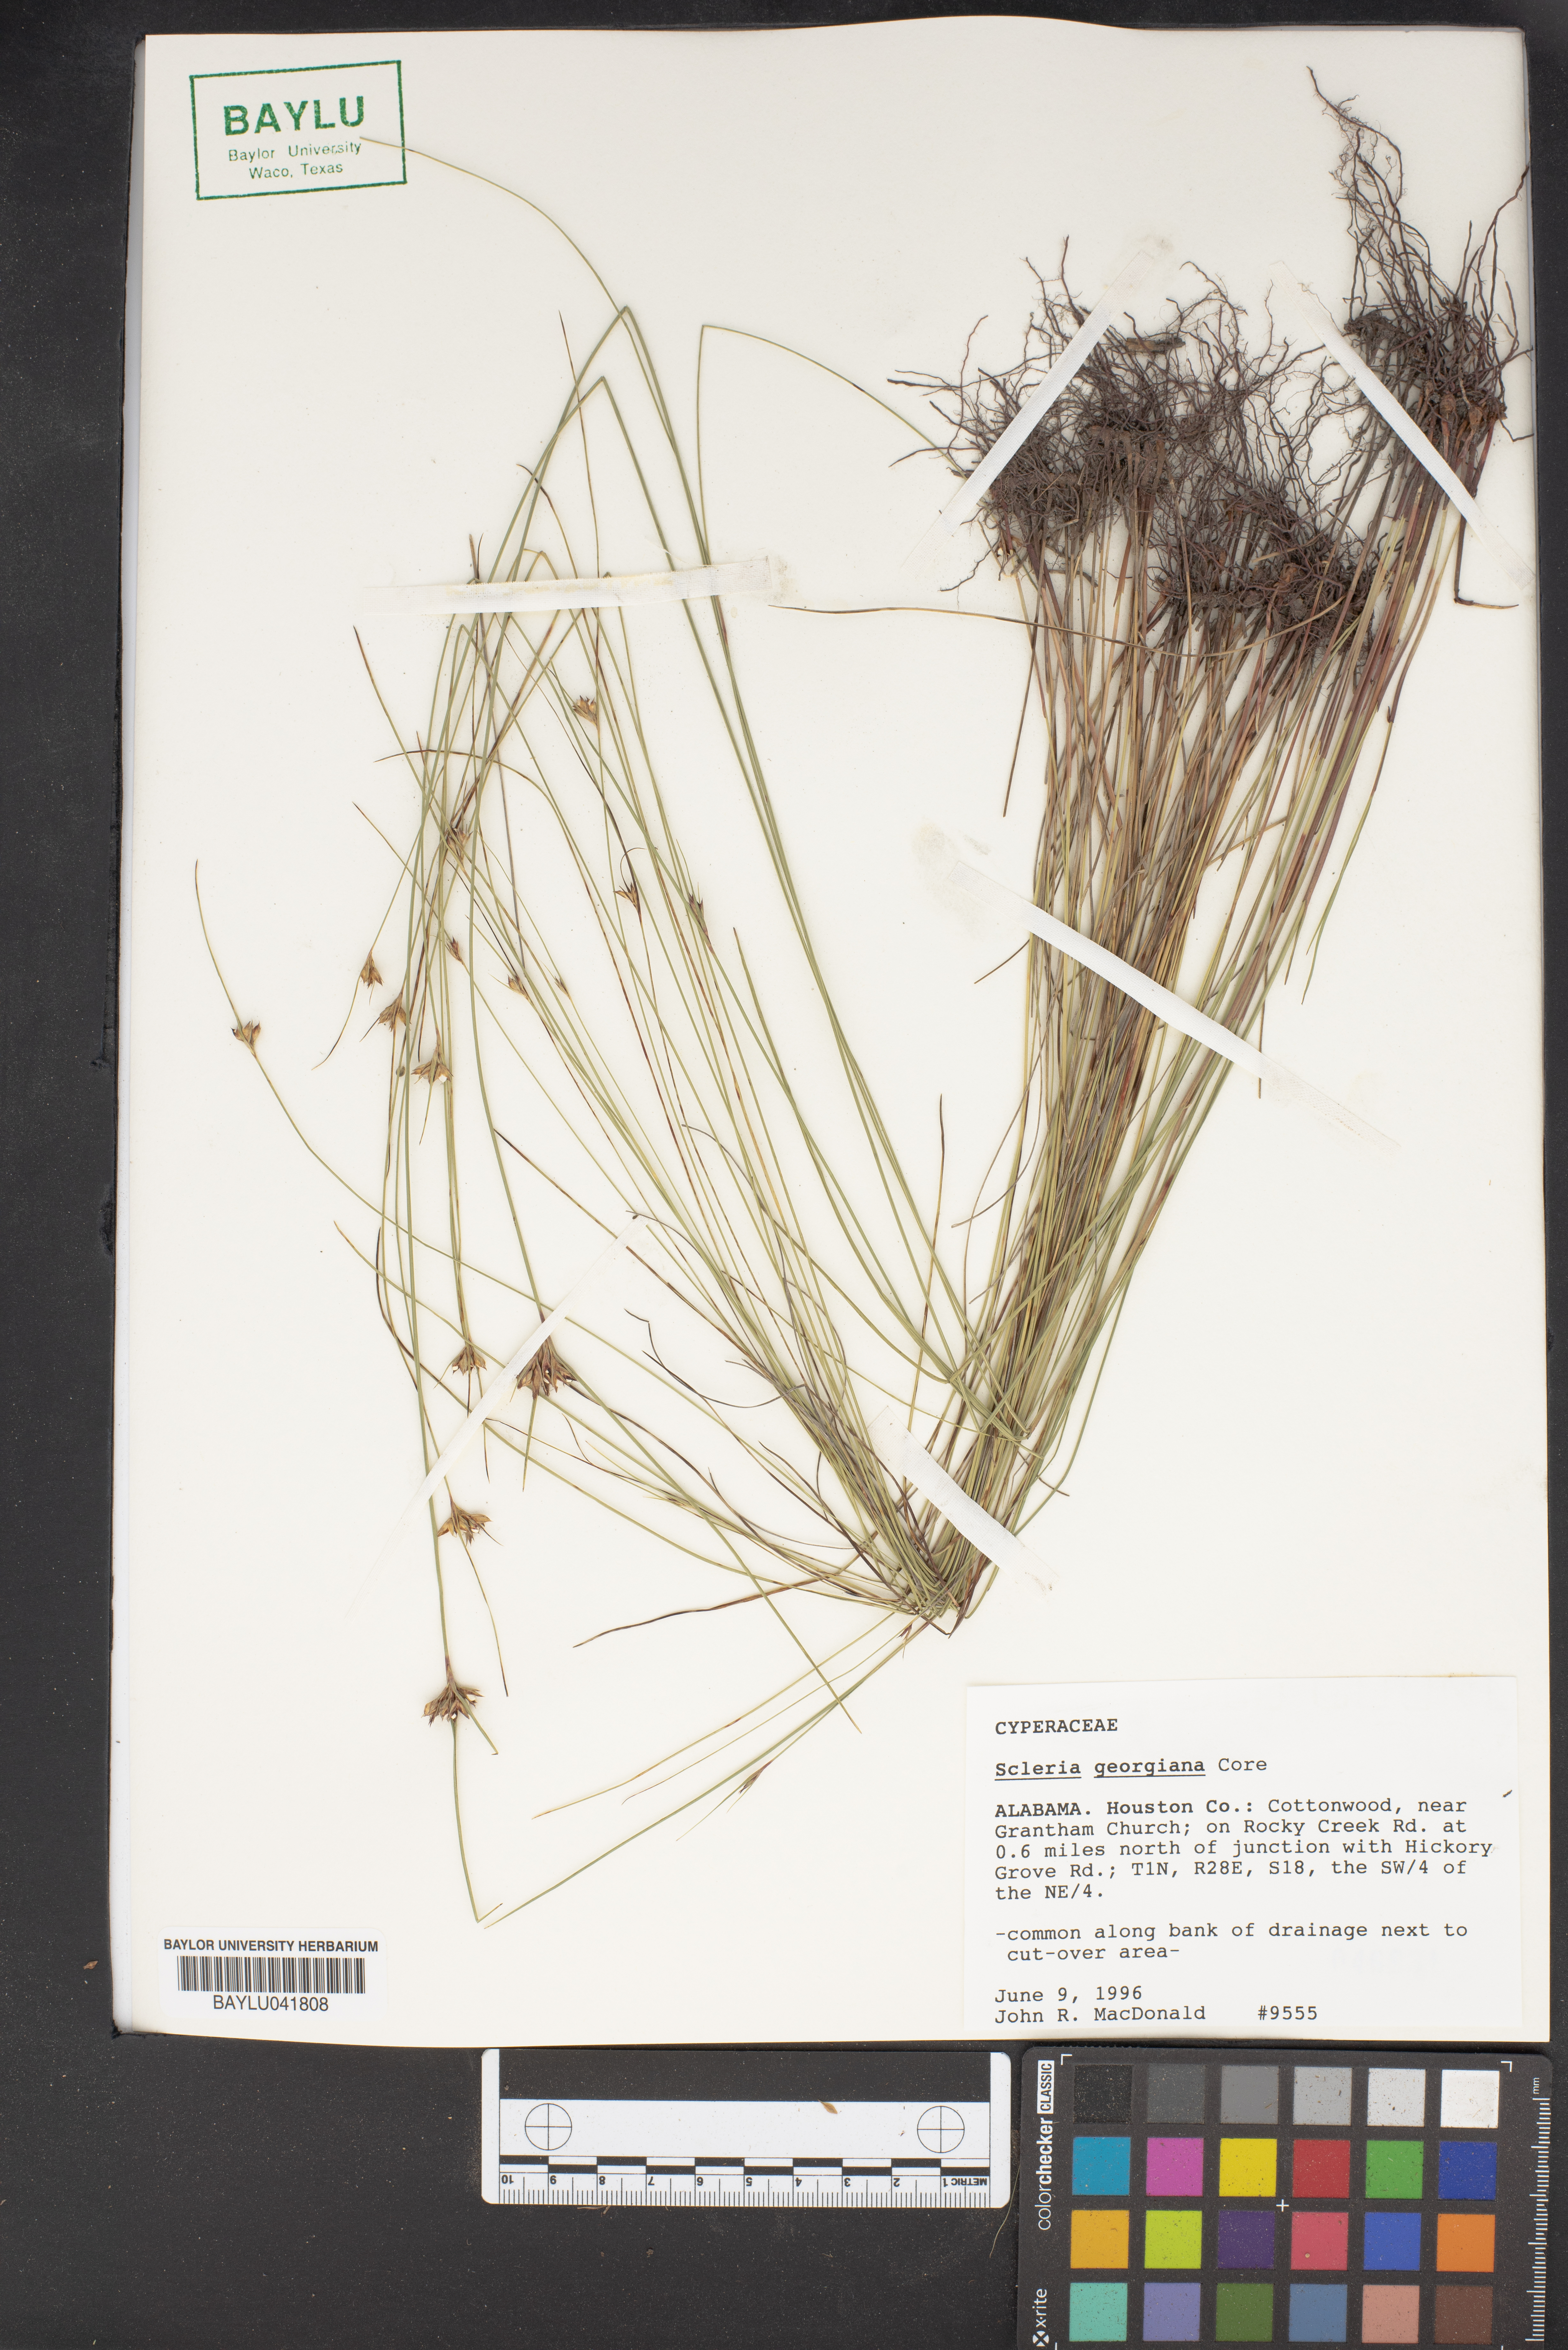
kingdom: Plantae
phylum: Tracheophyta
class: Liliopsida
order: Poales
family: Cyperaceae
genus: Scleria
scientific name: Scleria georgiana
